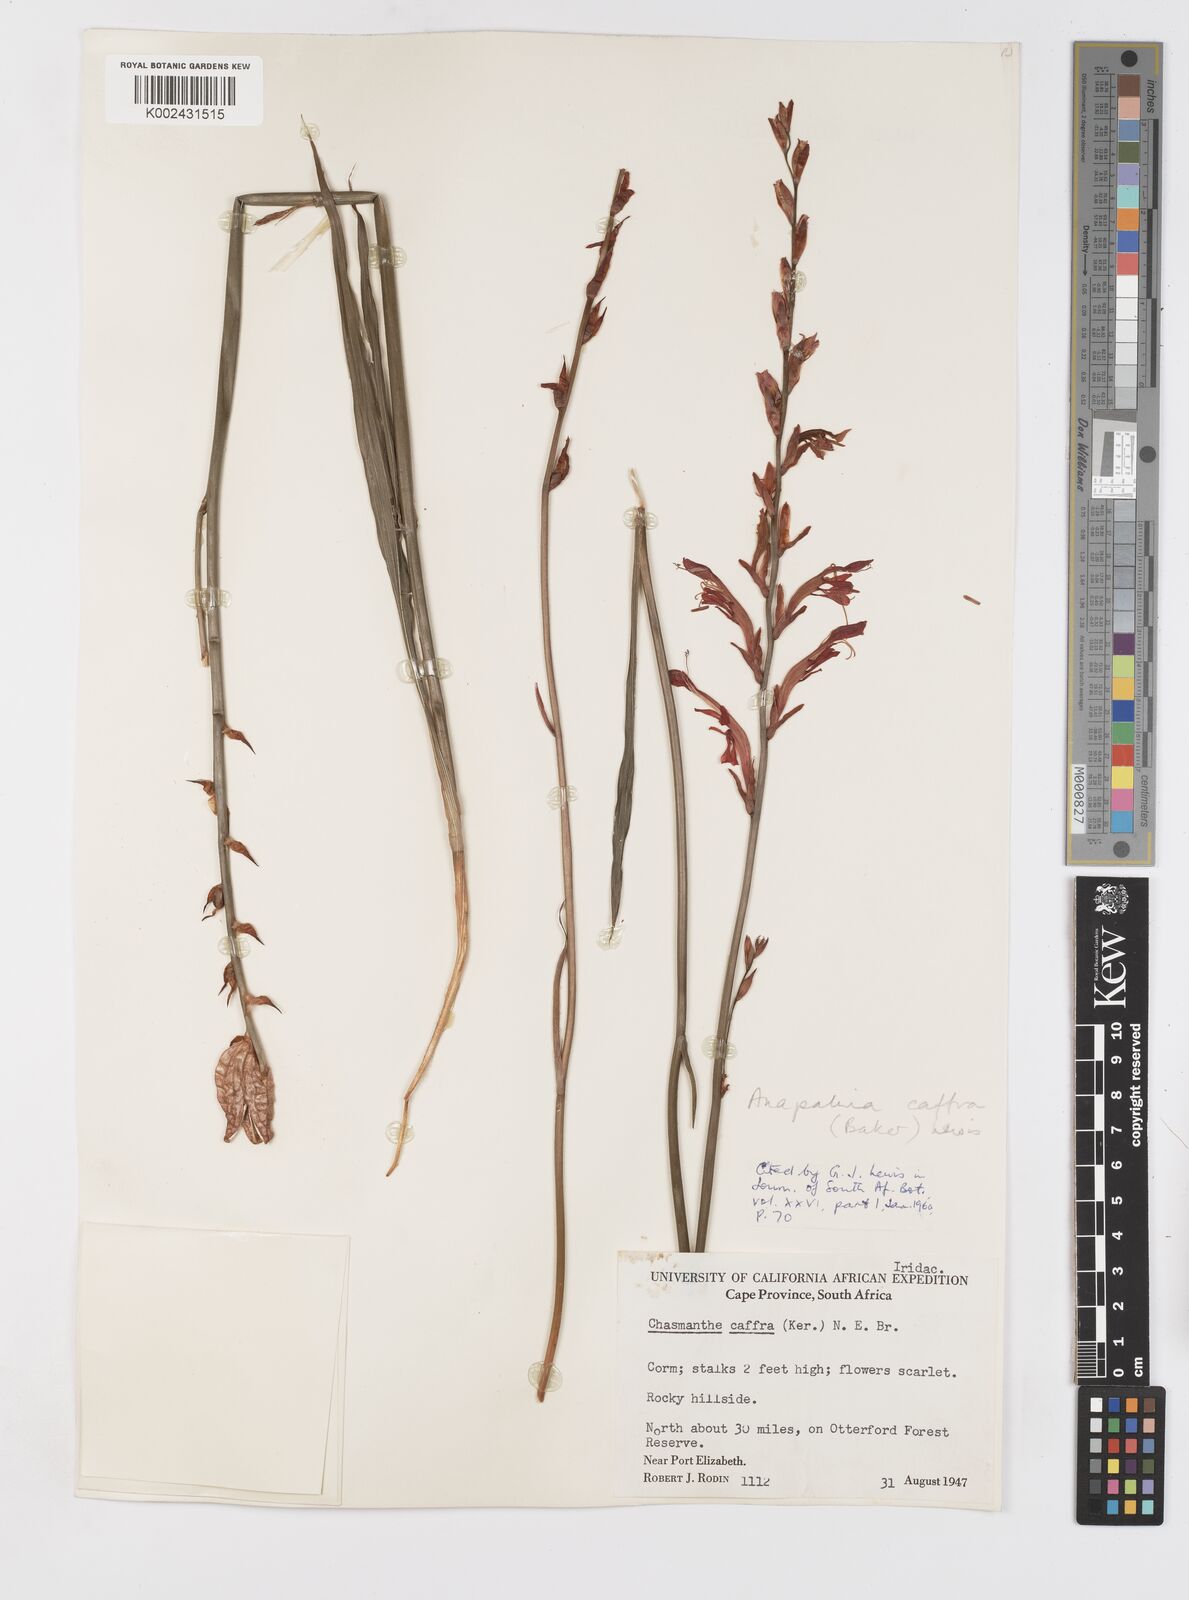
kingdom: Plantae
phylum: Tracheophyta
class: Liliopsida
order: Asparagales
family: Iridaceae
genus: Tritoniopsis
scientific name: Tritoniopsis caffra
